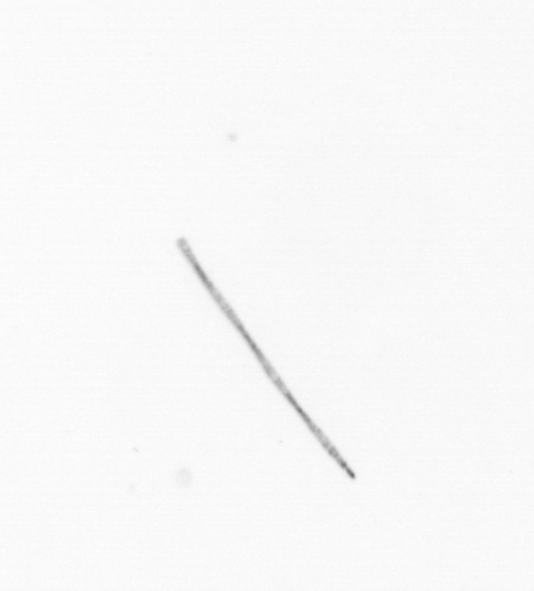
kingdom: Chromista
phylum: Ochrophyta
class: Bacillariophyceae
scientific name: Bacillariophyceae
